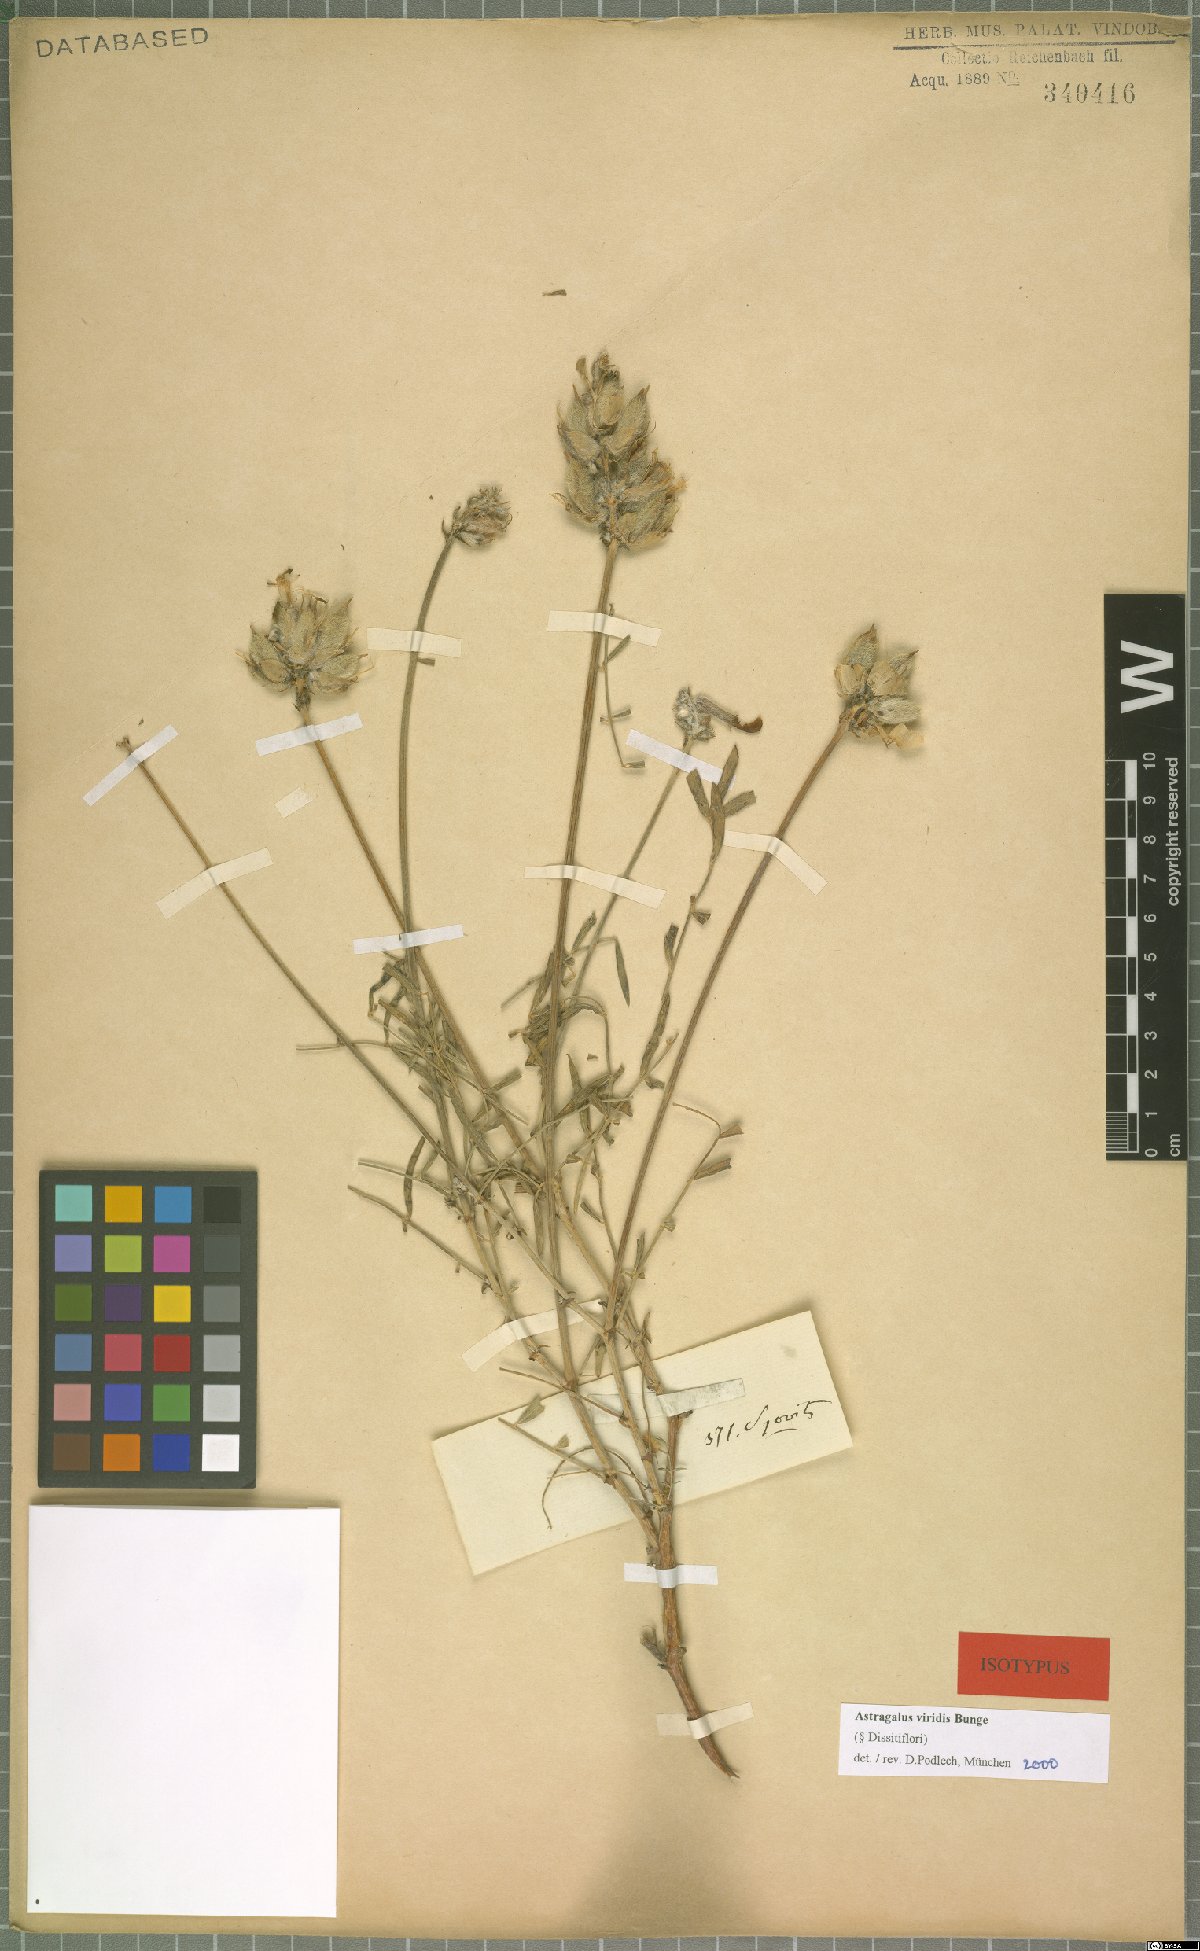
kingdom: Plantae
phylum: Tracheophyta
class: Magnoliopsida
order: Fabales
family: Fabaceae
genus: Astragalus
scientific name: Astragalus viridis
